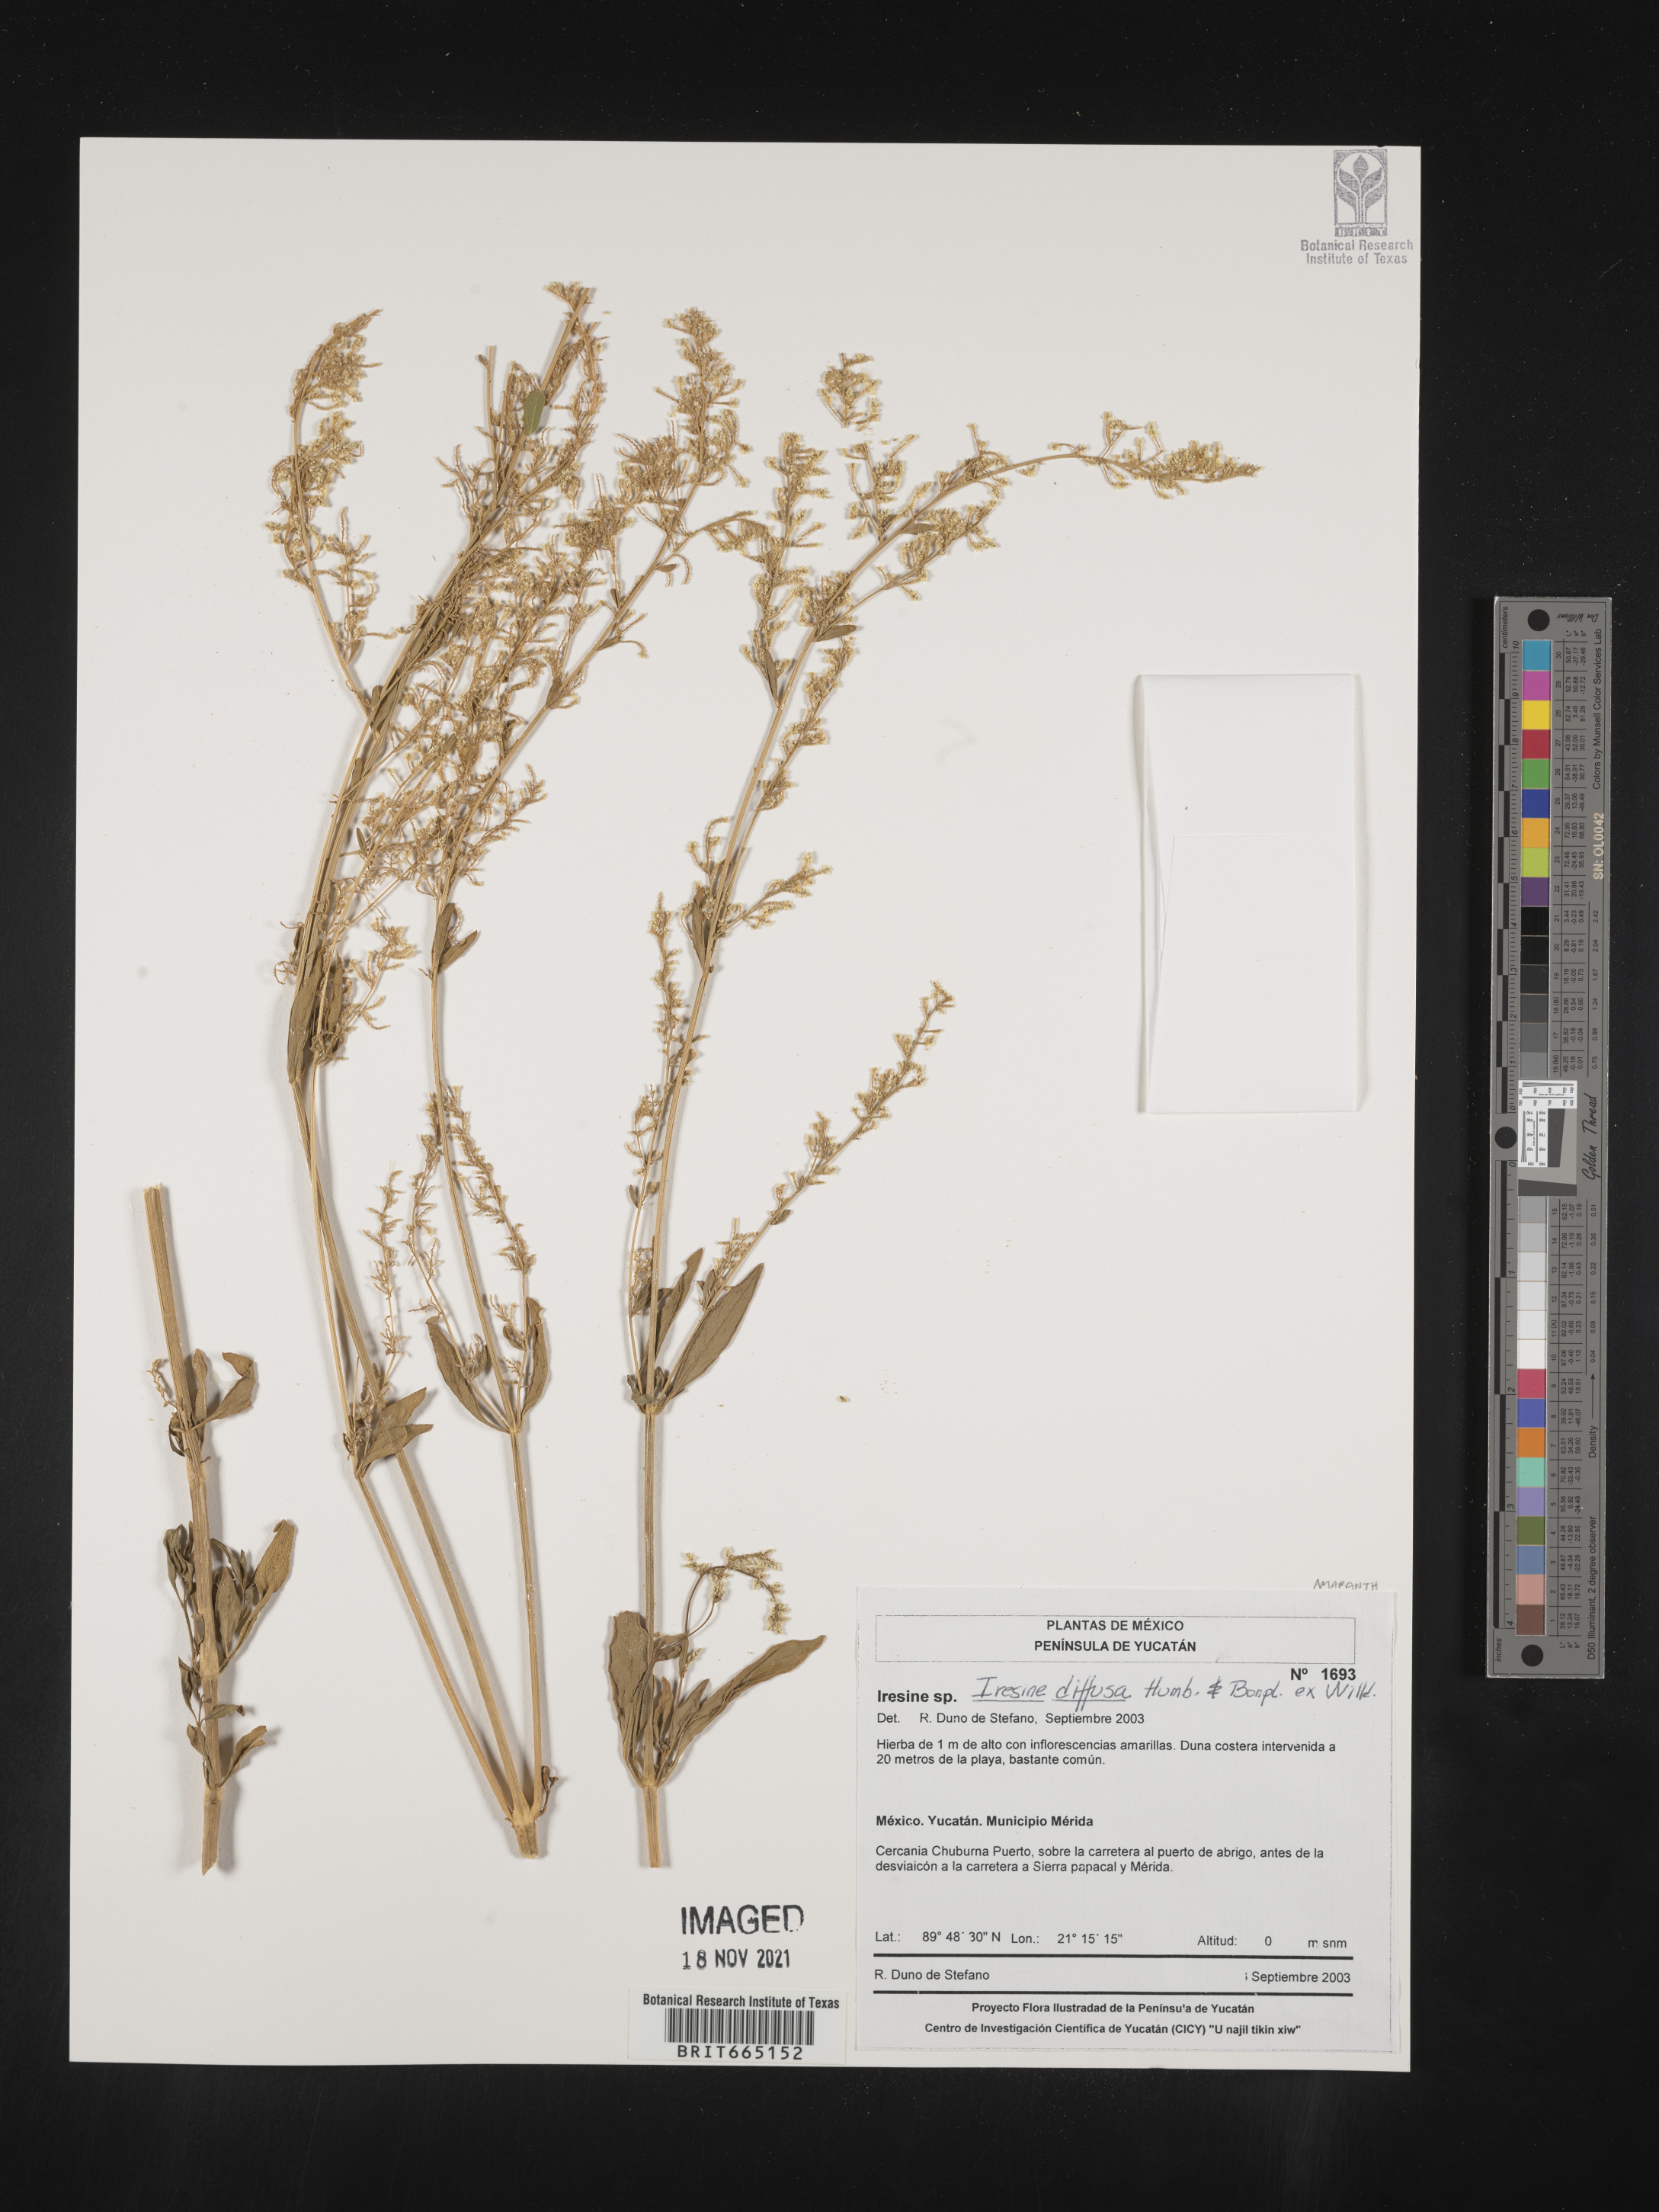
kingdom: Plantae
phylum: Tracheophyta
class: Magnoliopsida
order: Caryophyllales
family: Amaranthaceae
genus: Iresine
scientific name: Iresine
